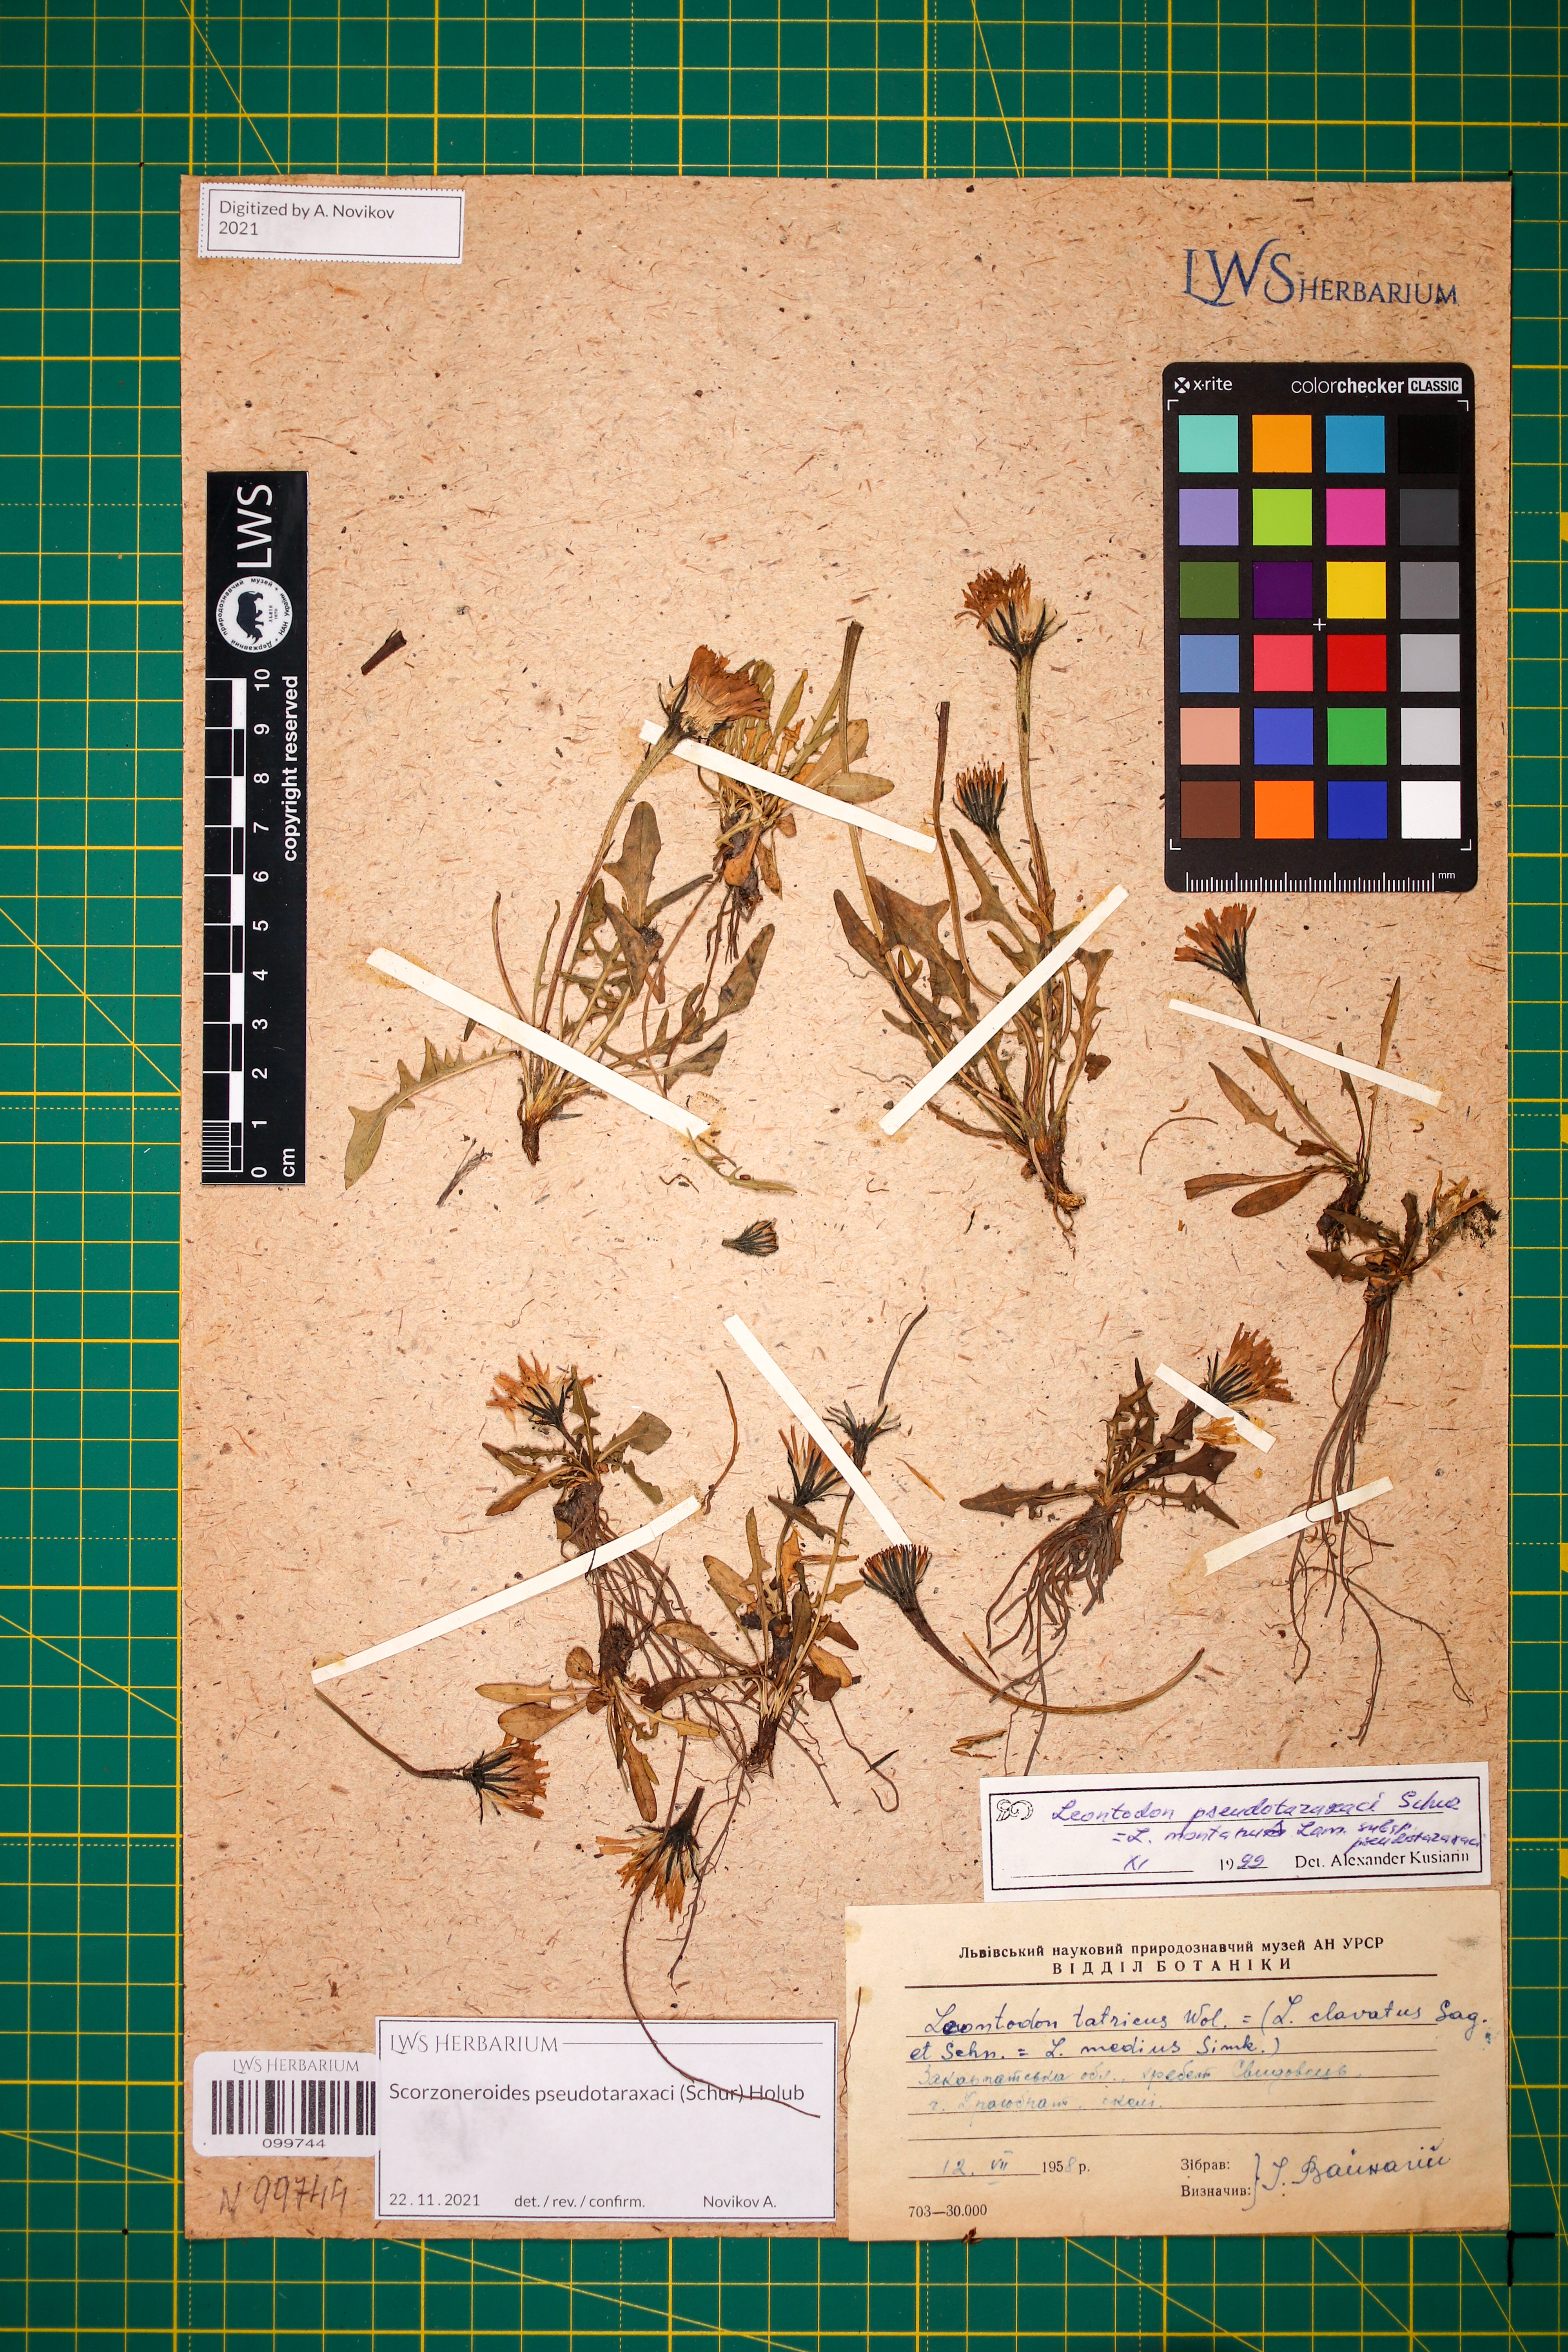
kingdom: Plantae
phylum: Tracheophyta
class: Magnoliopsida
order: Asterales
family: Asteraceae
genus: Scorzoneroides
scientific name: Scorzoneroides pseudotaraxaci
